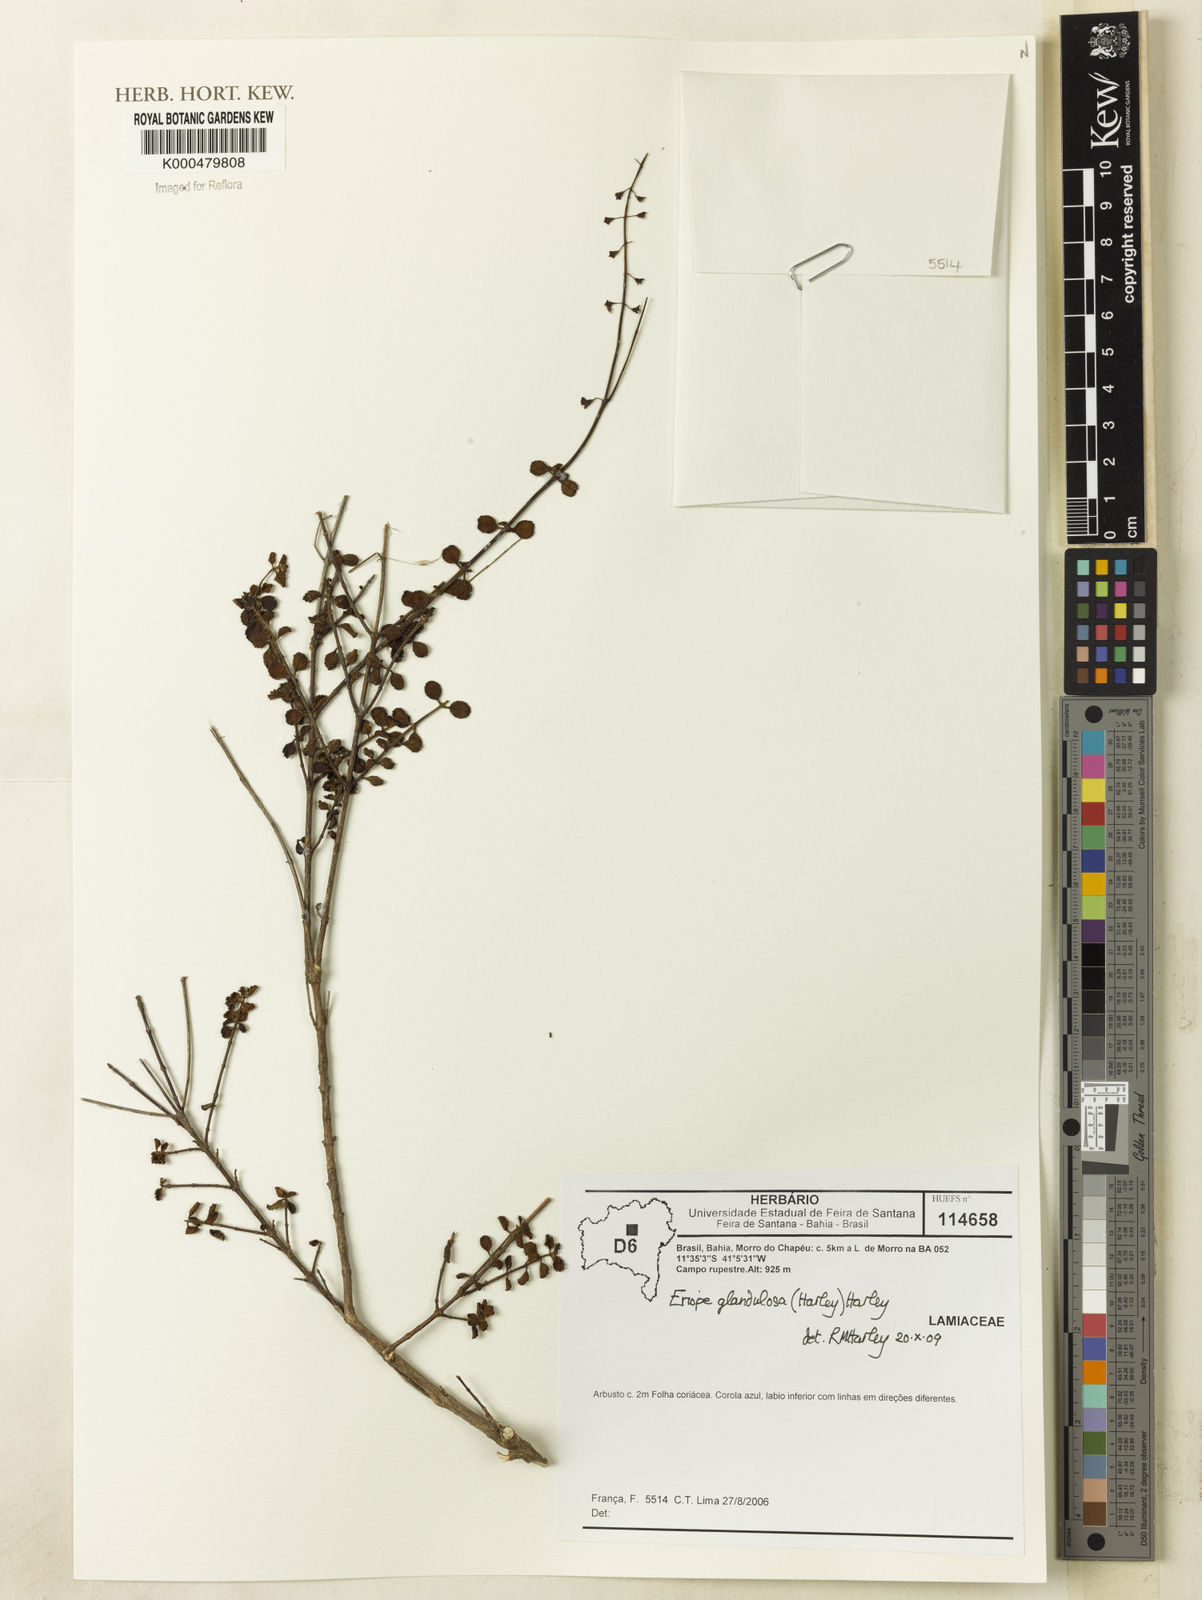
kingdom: Plantae
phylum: Tracheophyta
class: Magnoliopsida
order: Lamiales
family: Lamiaceae
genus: Eriope
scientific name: Eriope
